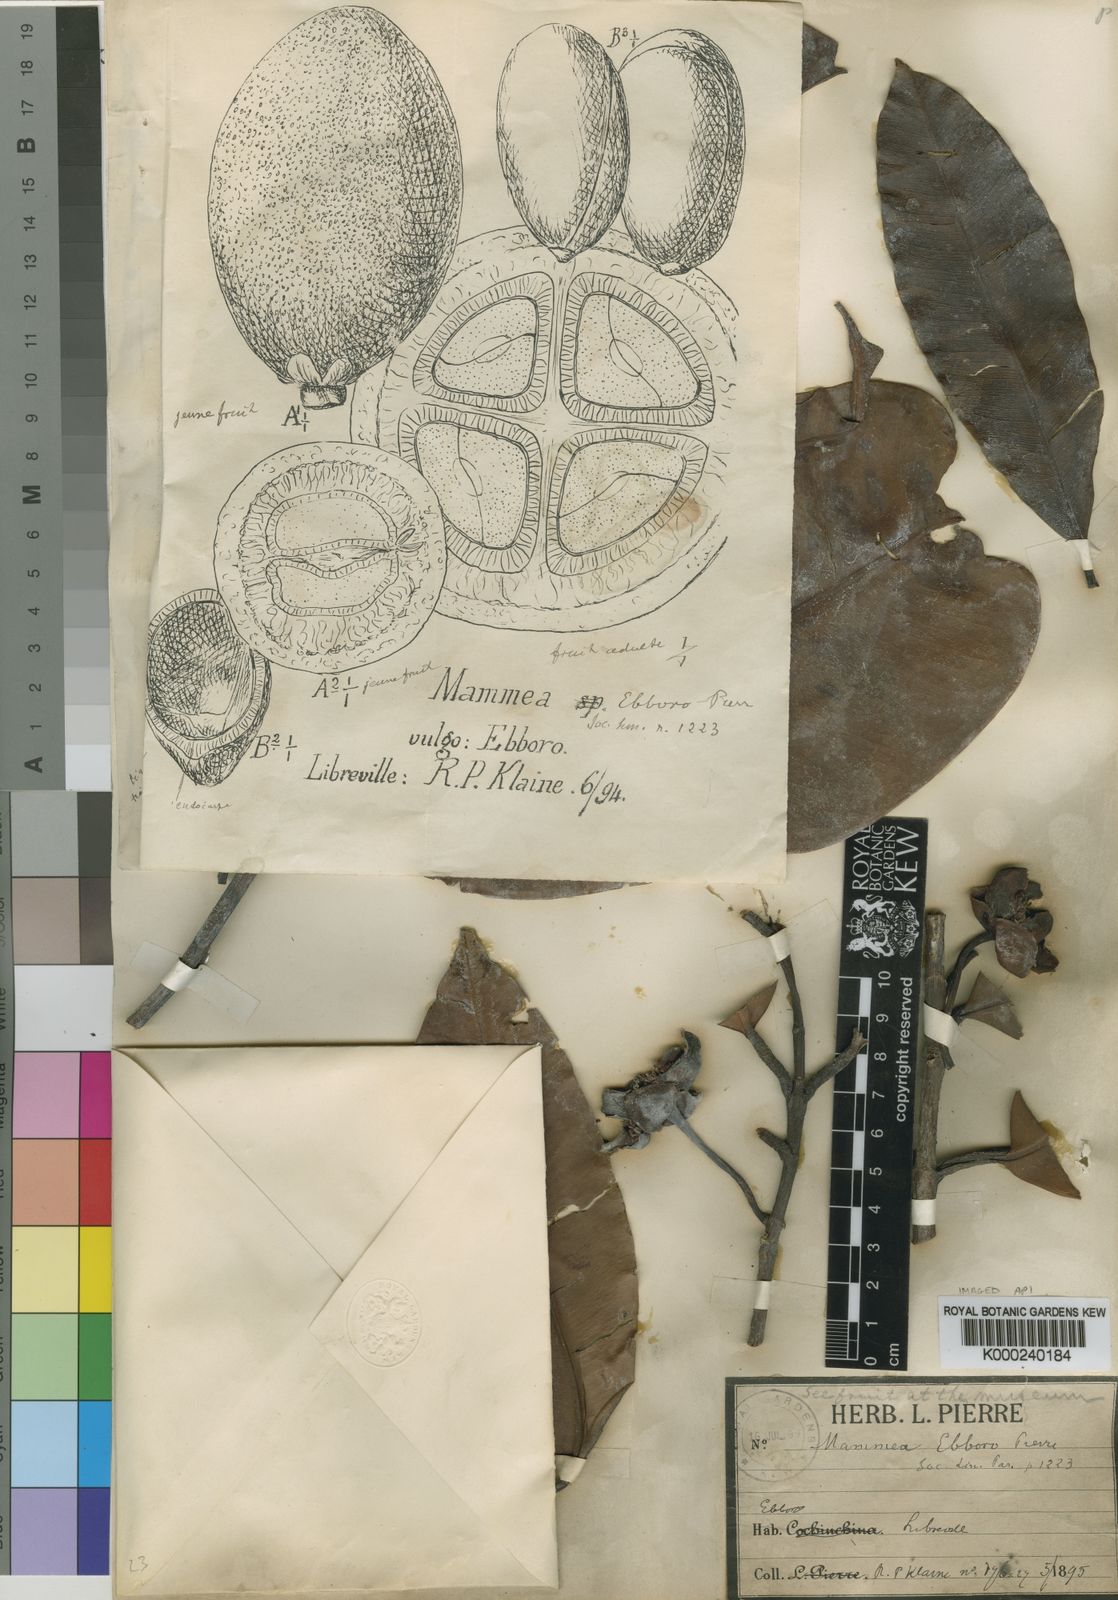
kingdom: Plantae
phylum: Tracheophyta
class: Magnoliopsida
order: Malpighiales
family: Calophyllaceae
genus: Mammea
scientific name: Mammea
